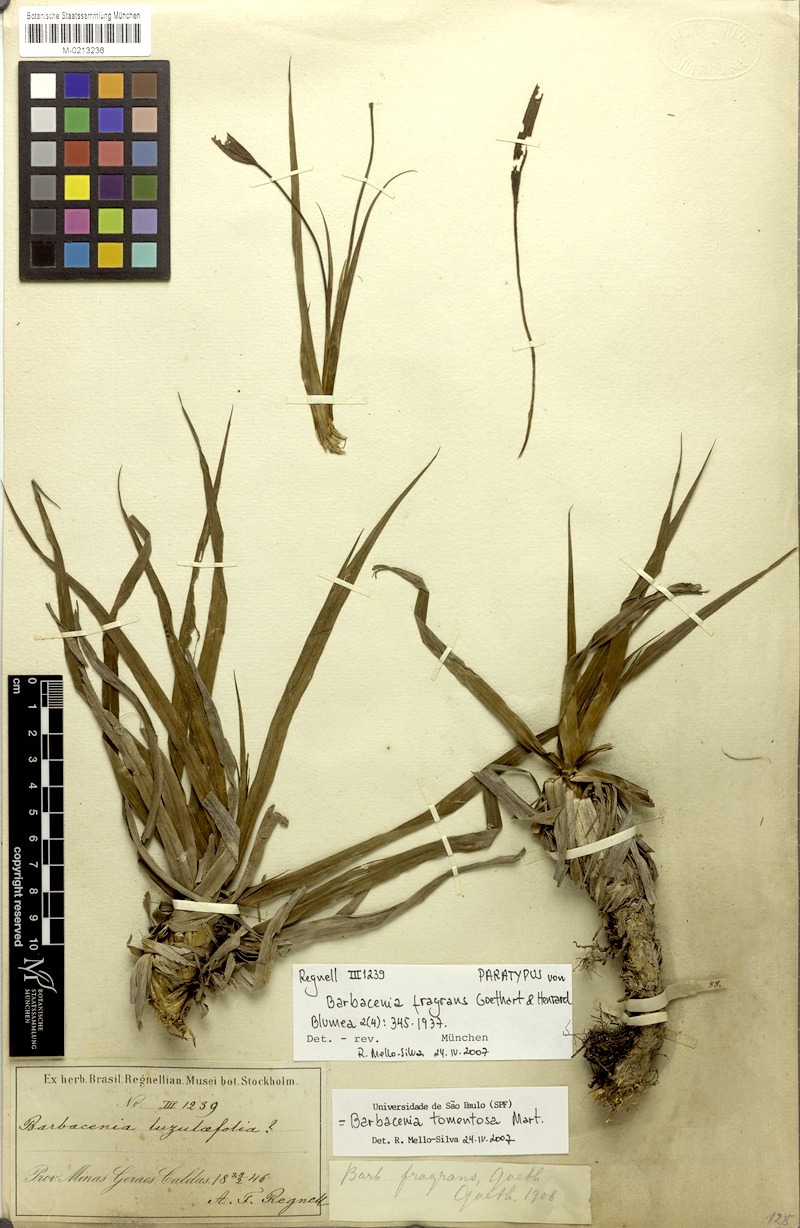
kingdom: Plantae
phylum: Tracheophyta
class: Liliopsida
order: Pandanales
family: Velloziaceae
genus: Barbacenia
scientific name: Barbacenia tomentosa
